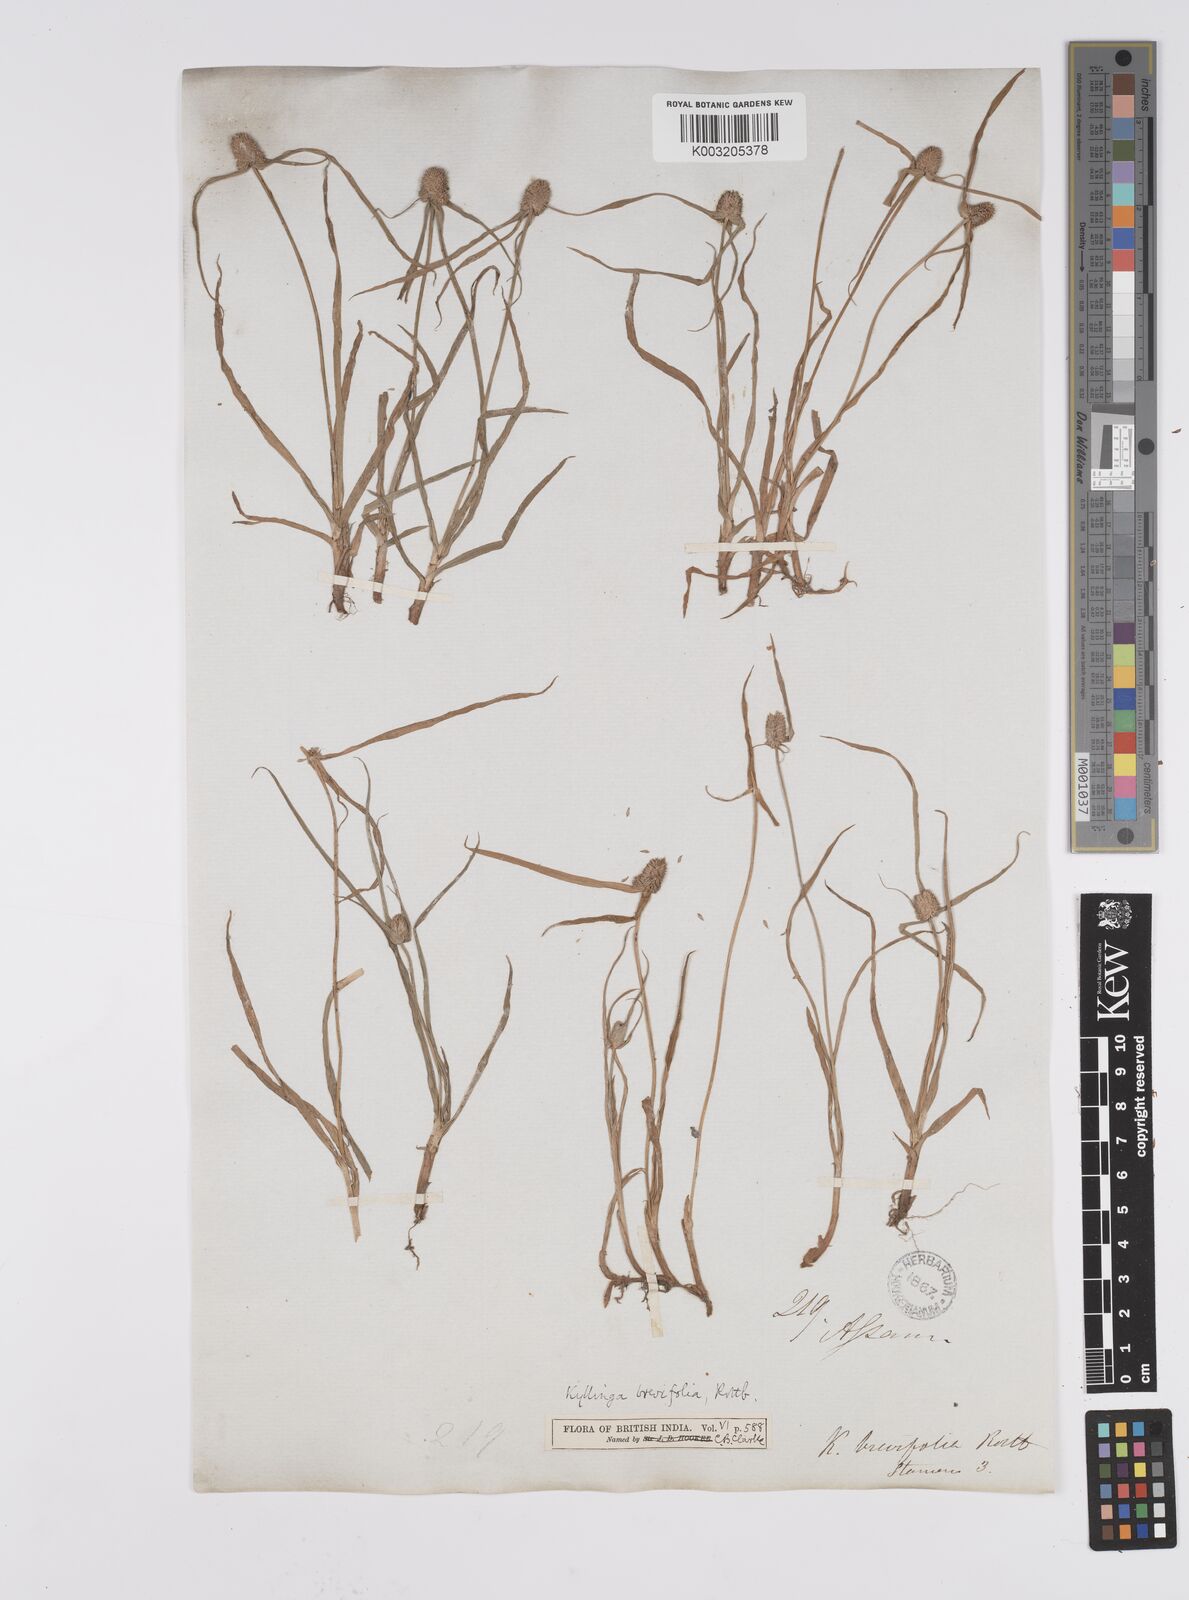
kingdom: Plantae
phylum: Tracheophyta
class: Liliopsida
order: Poales
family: Cyperaceae
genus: Cyperus
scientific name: Cyperus brevifolius
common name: Globe kyllinga
